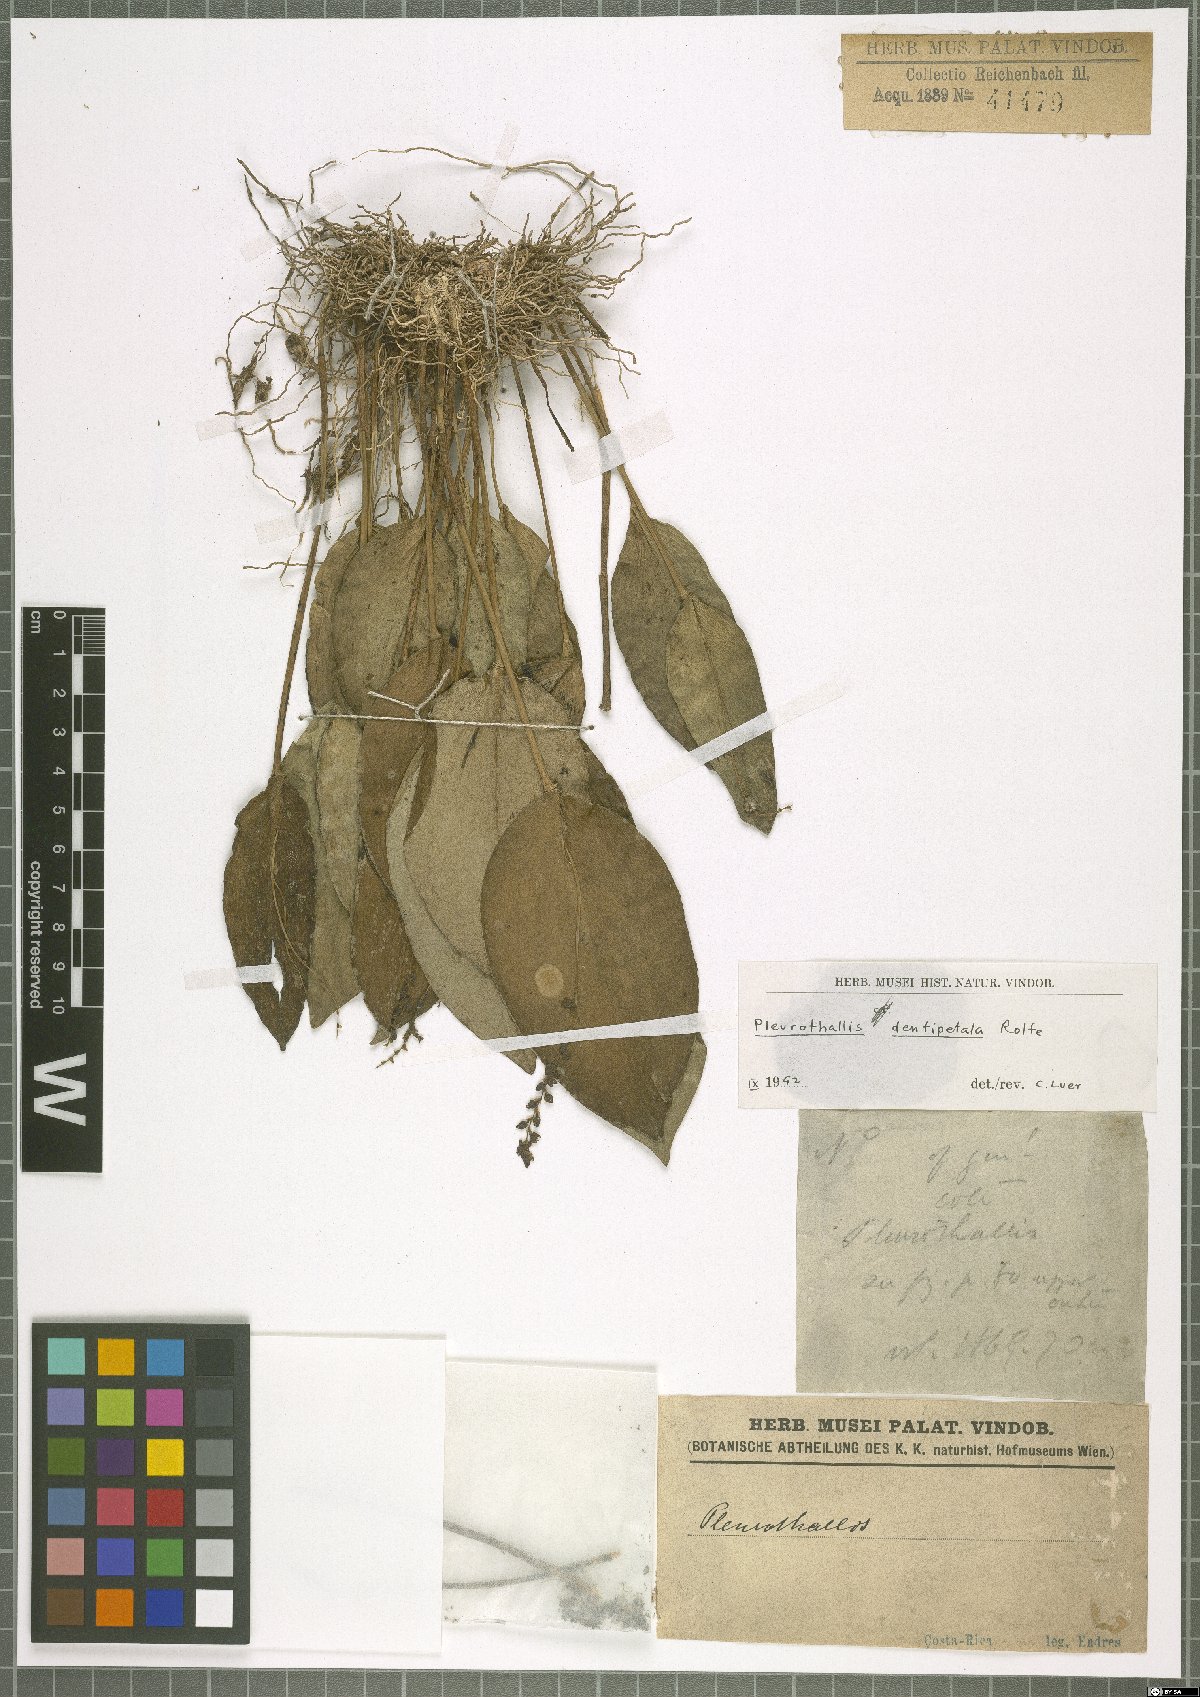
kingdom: Plantae
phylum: Tracheophyta
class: Liliopsida
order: Asparagales
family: Orchidaceae
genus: Pleurothallis
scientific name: Pleurothallis dentipetala
